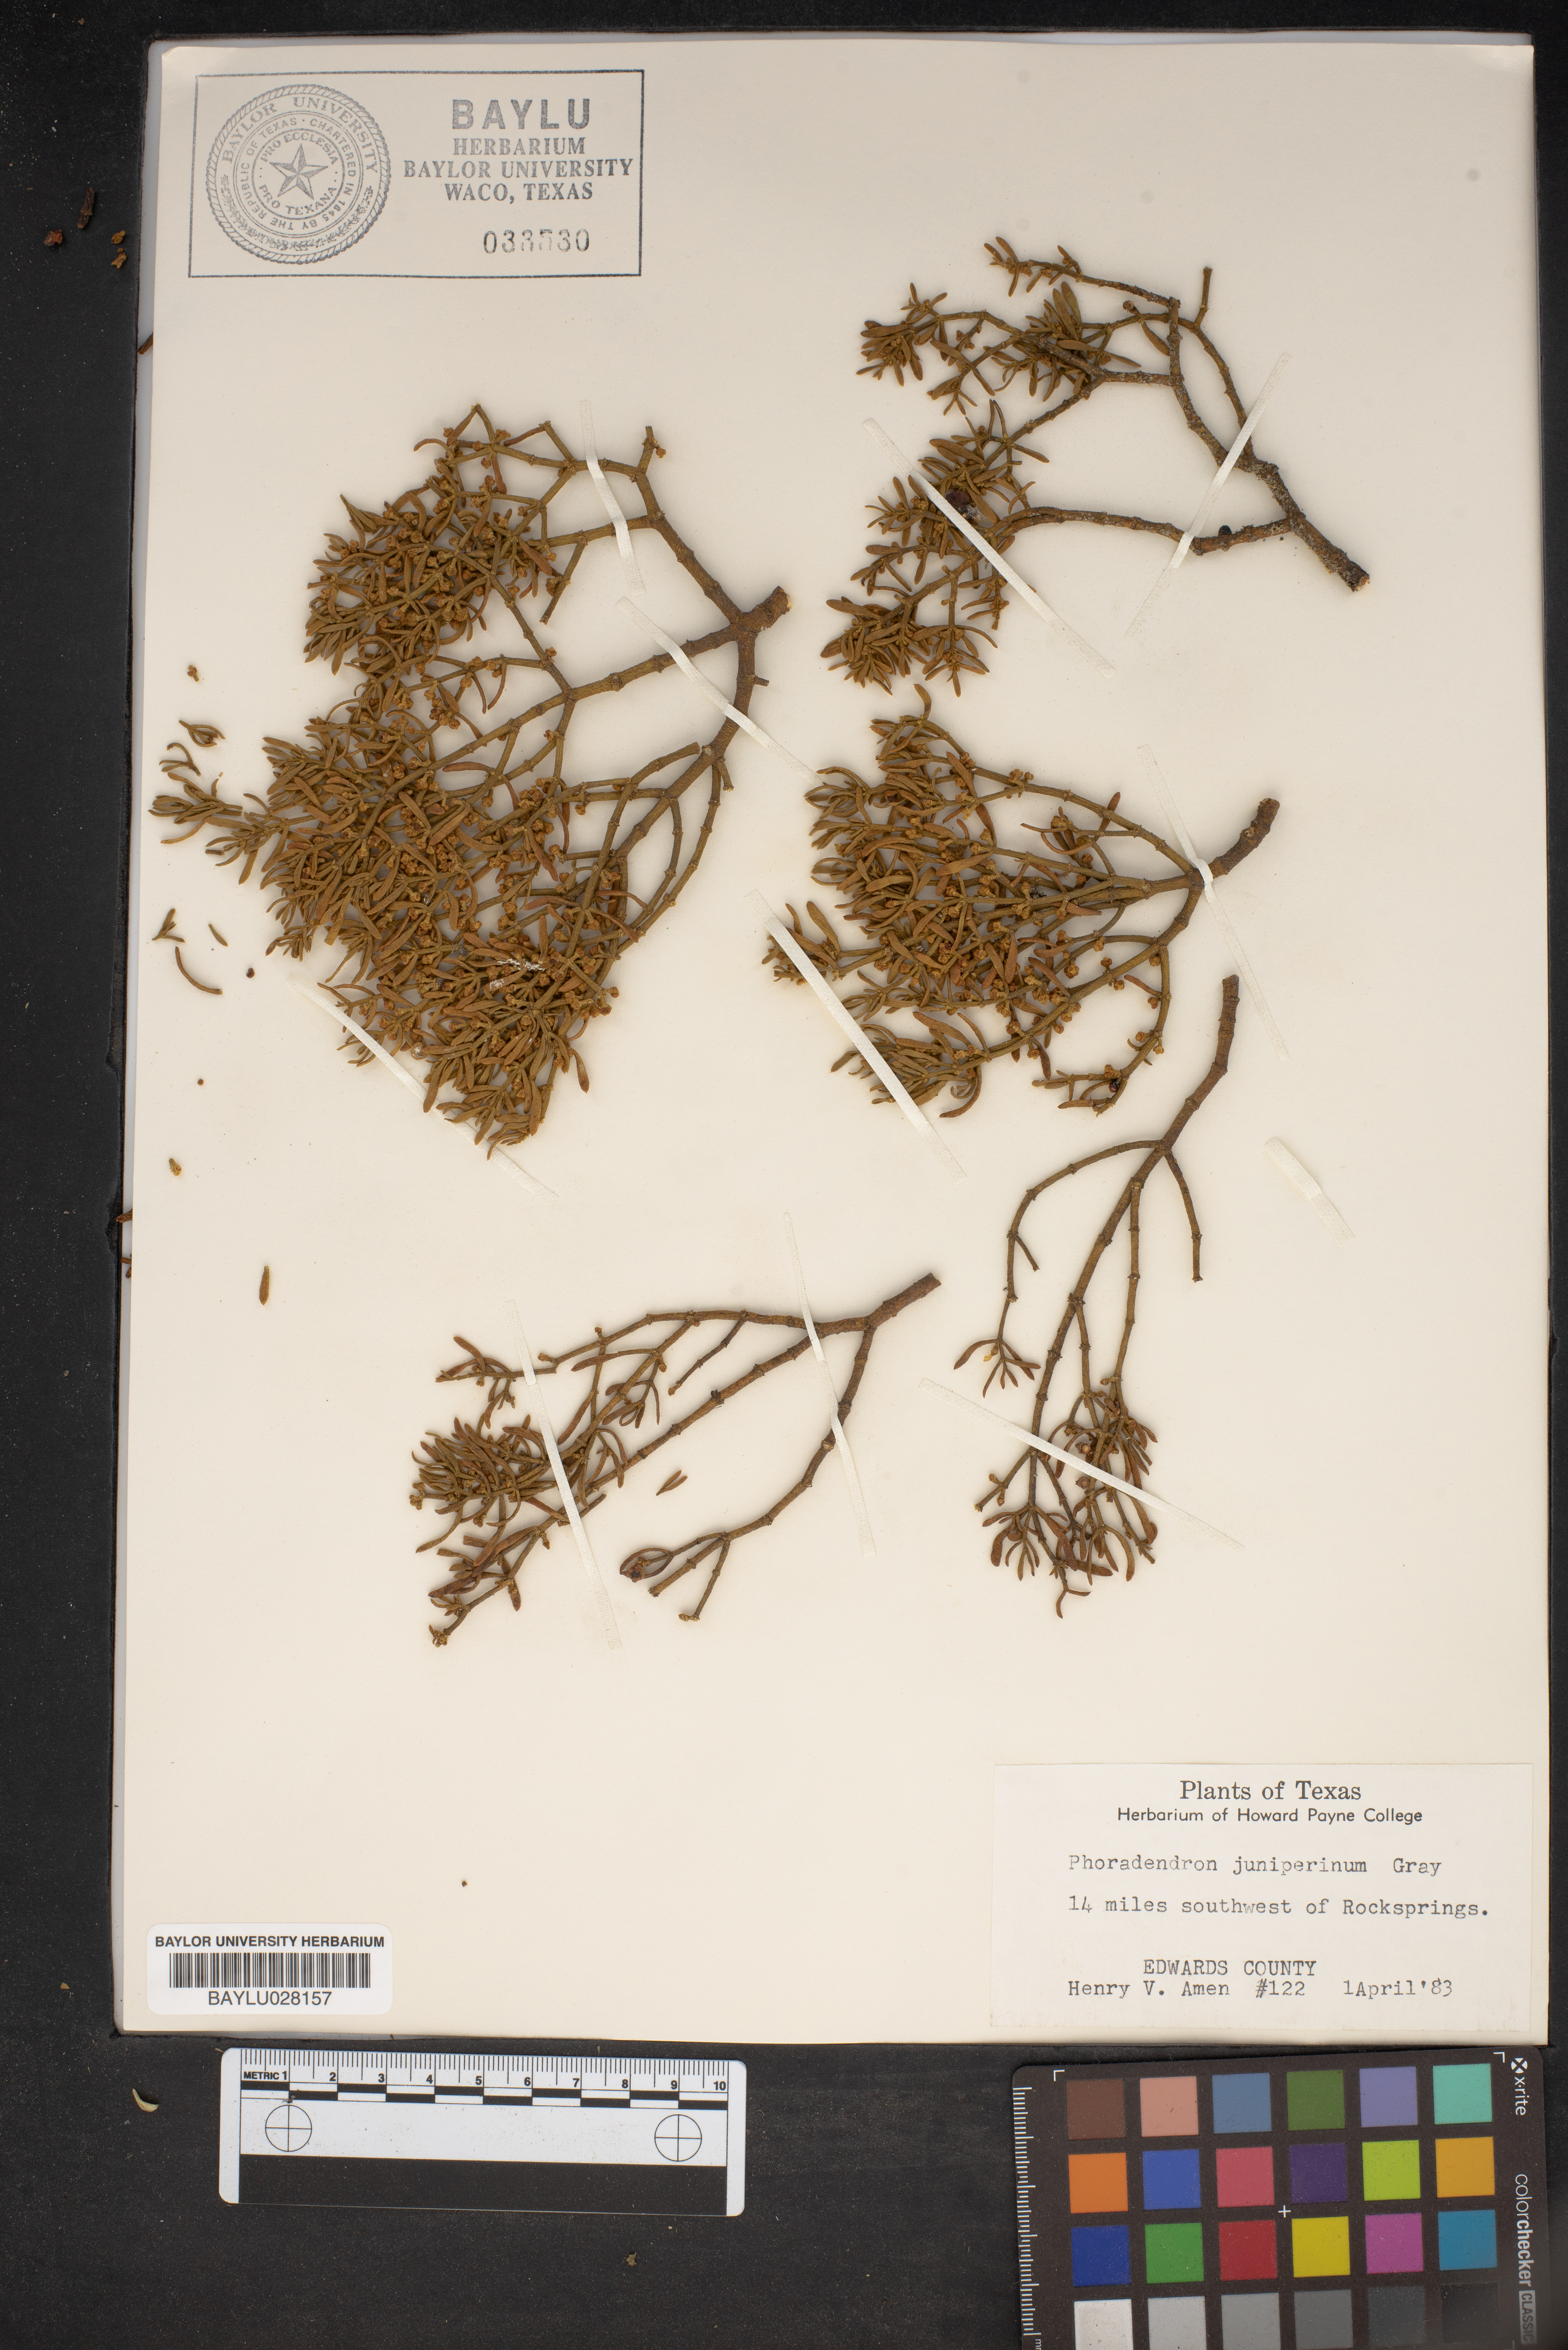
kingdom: Plantae
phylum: Tracheophyta
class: Magnoliopsida
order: Santalales
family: Viscaceae
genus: Phoradendron
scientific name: Phoradendron juniperinum
